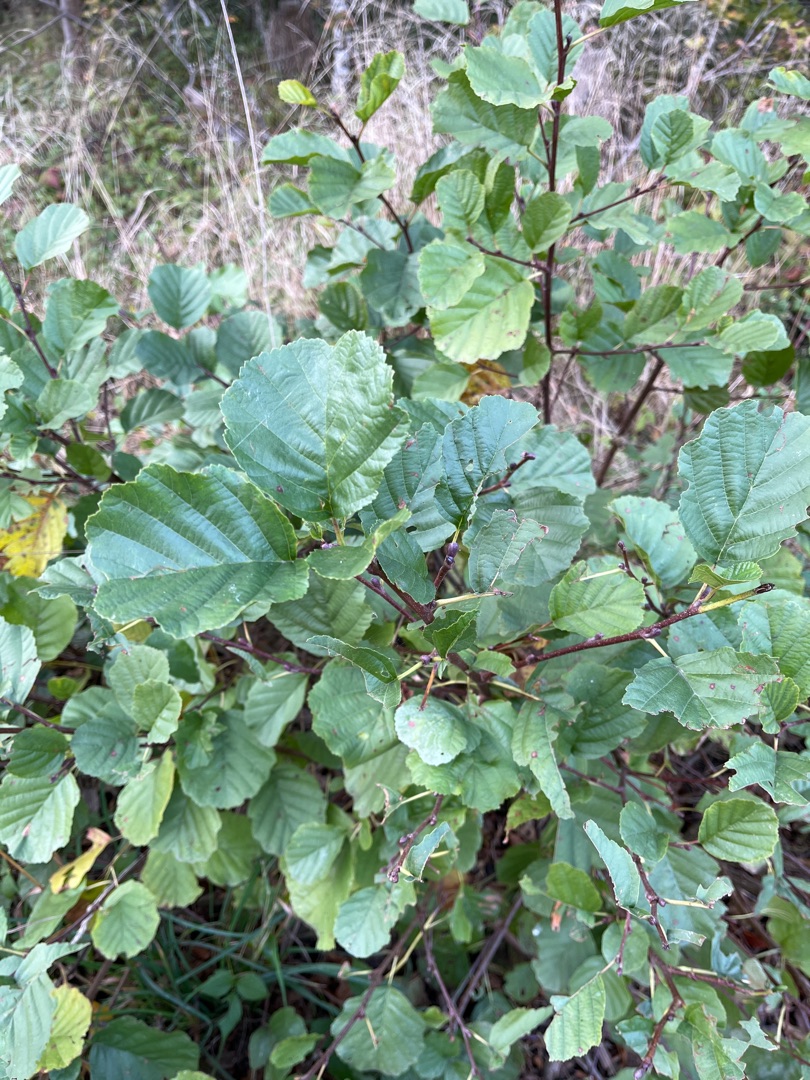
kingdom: Plantae
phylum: Tracheophyta
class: Magnoliopsida
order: Fagales
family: Betulaceae
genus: Alnus
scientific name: Alnus glutinosa
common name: Rød-el
